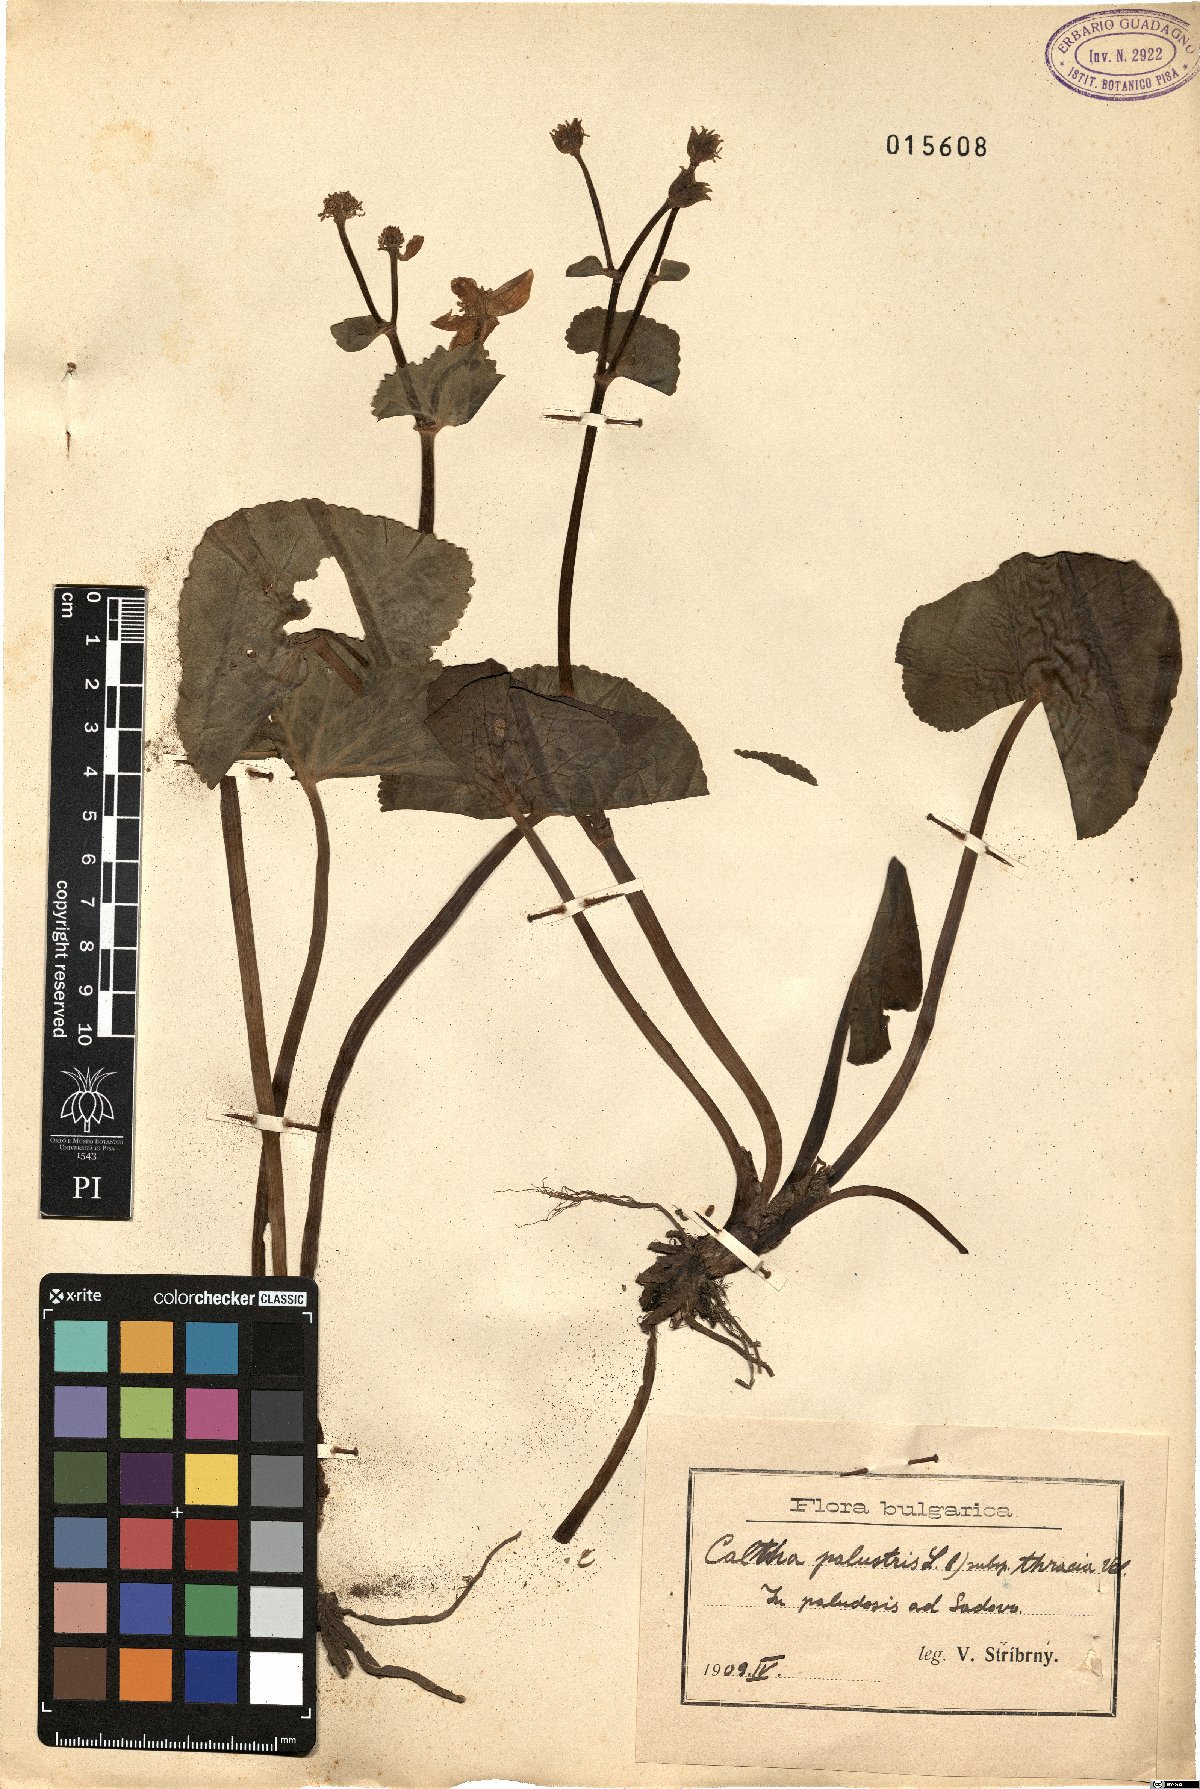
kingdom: Plantae
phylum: Tracheophyta
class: Magnoliopsida
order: Ranunculales
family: Ranunculaceae
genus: Caltha
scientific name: Caltha palustris
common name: Marsh marigold
